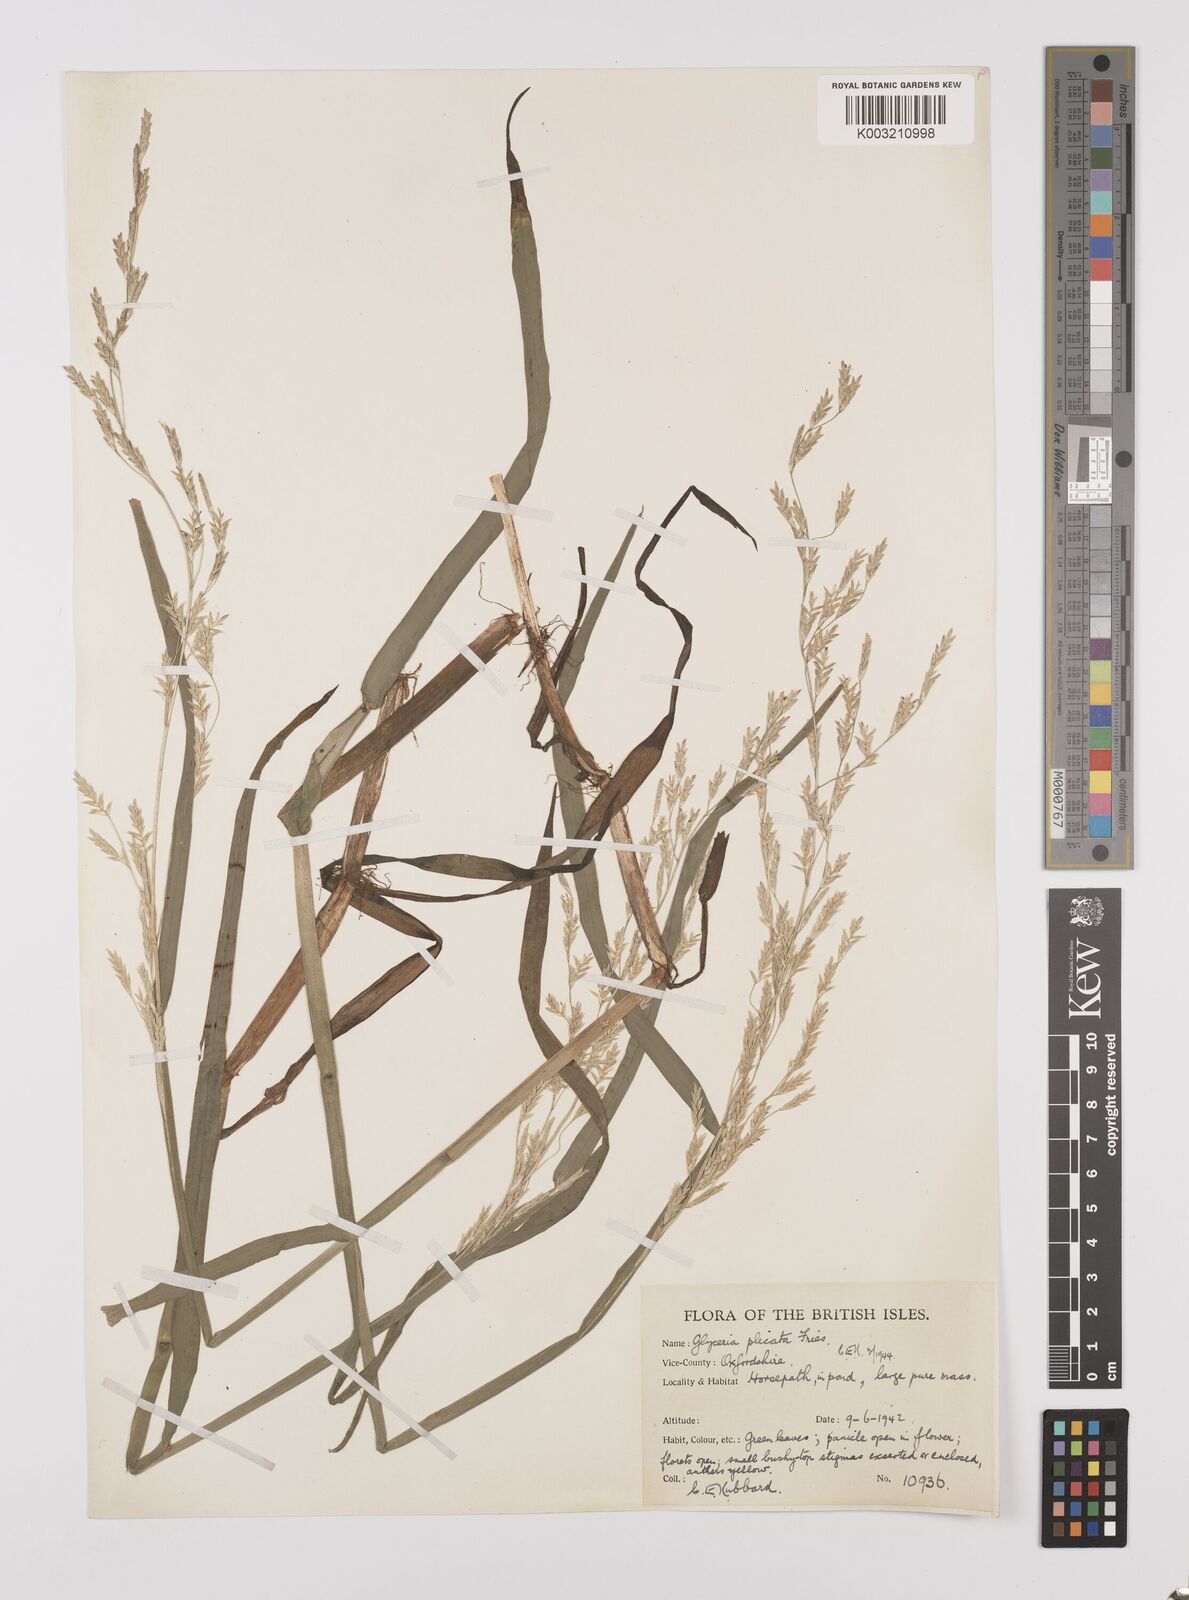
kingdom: Plantae
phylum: Tracheophyta
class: Liliopsida
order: Poales
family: Poaceae
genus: Glyceria
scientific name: Glyceria notata
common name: Plicate sweet-grass
